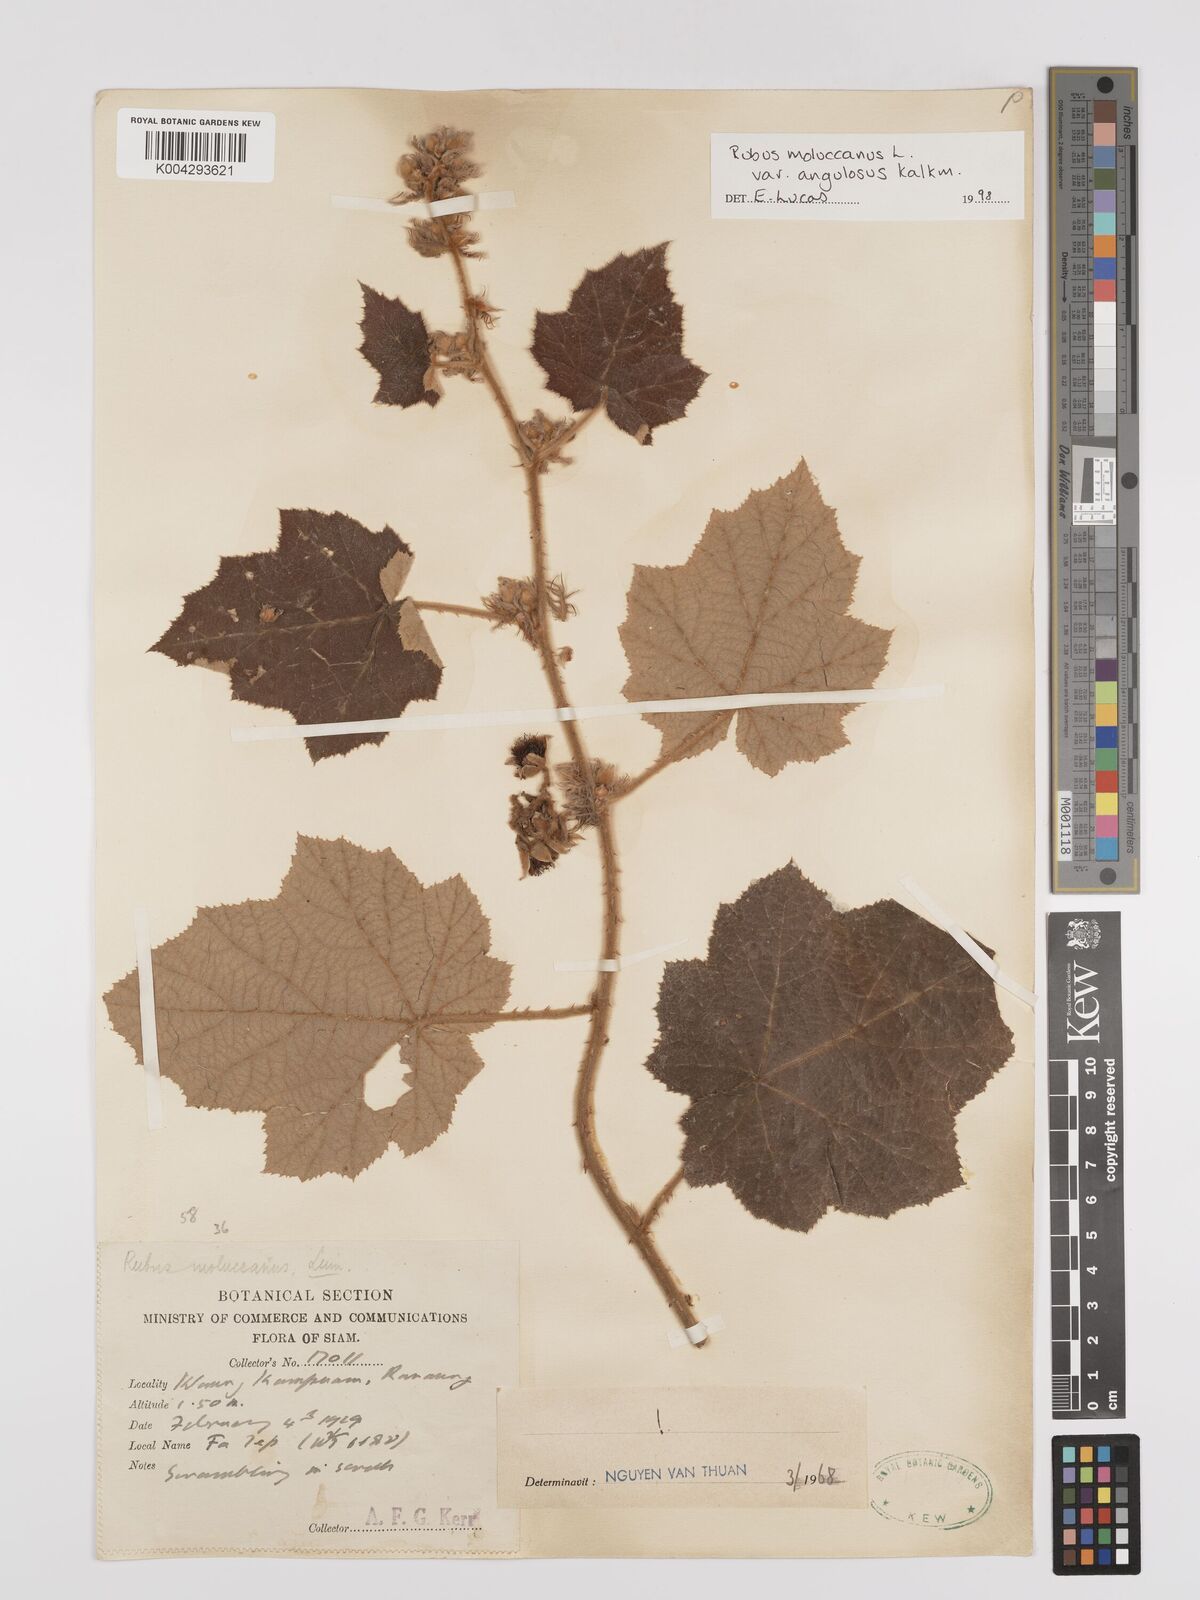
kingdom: Plantae
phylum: Tracheophyta
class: Magnoliopsida
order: Rosales
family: Rosaceae
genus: Rubus
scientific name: Rubus moluccanus
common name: Wild raspberry
